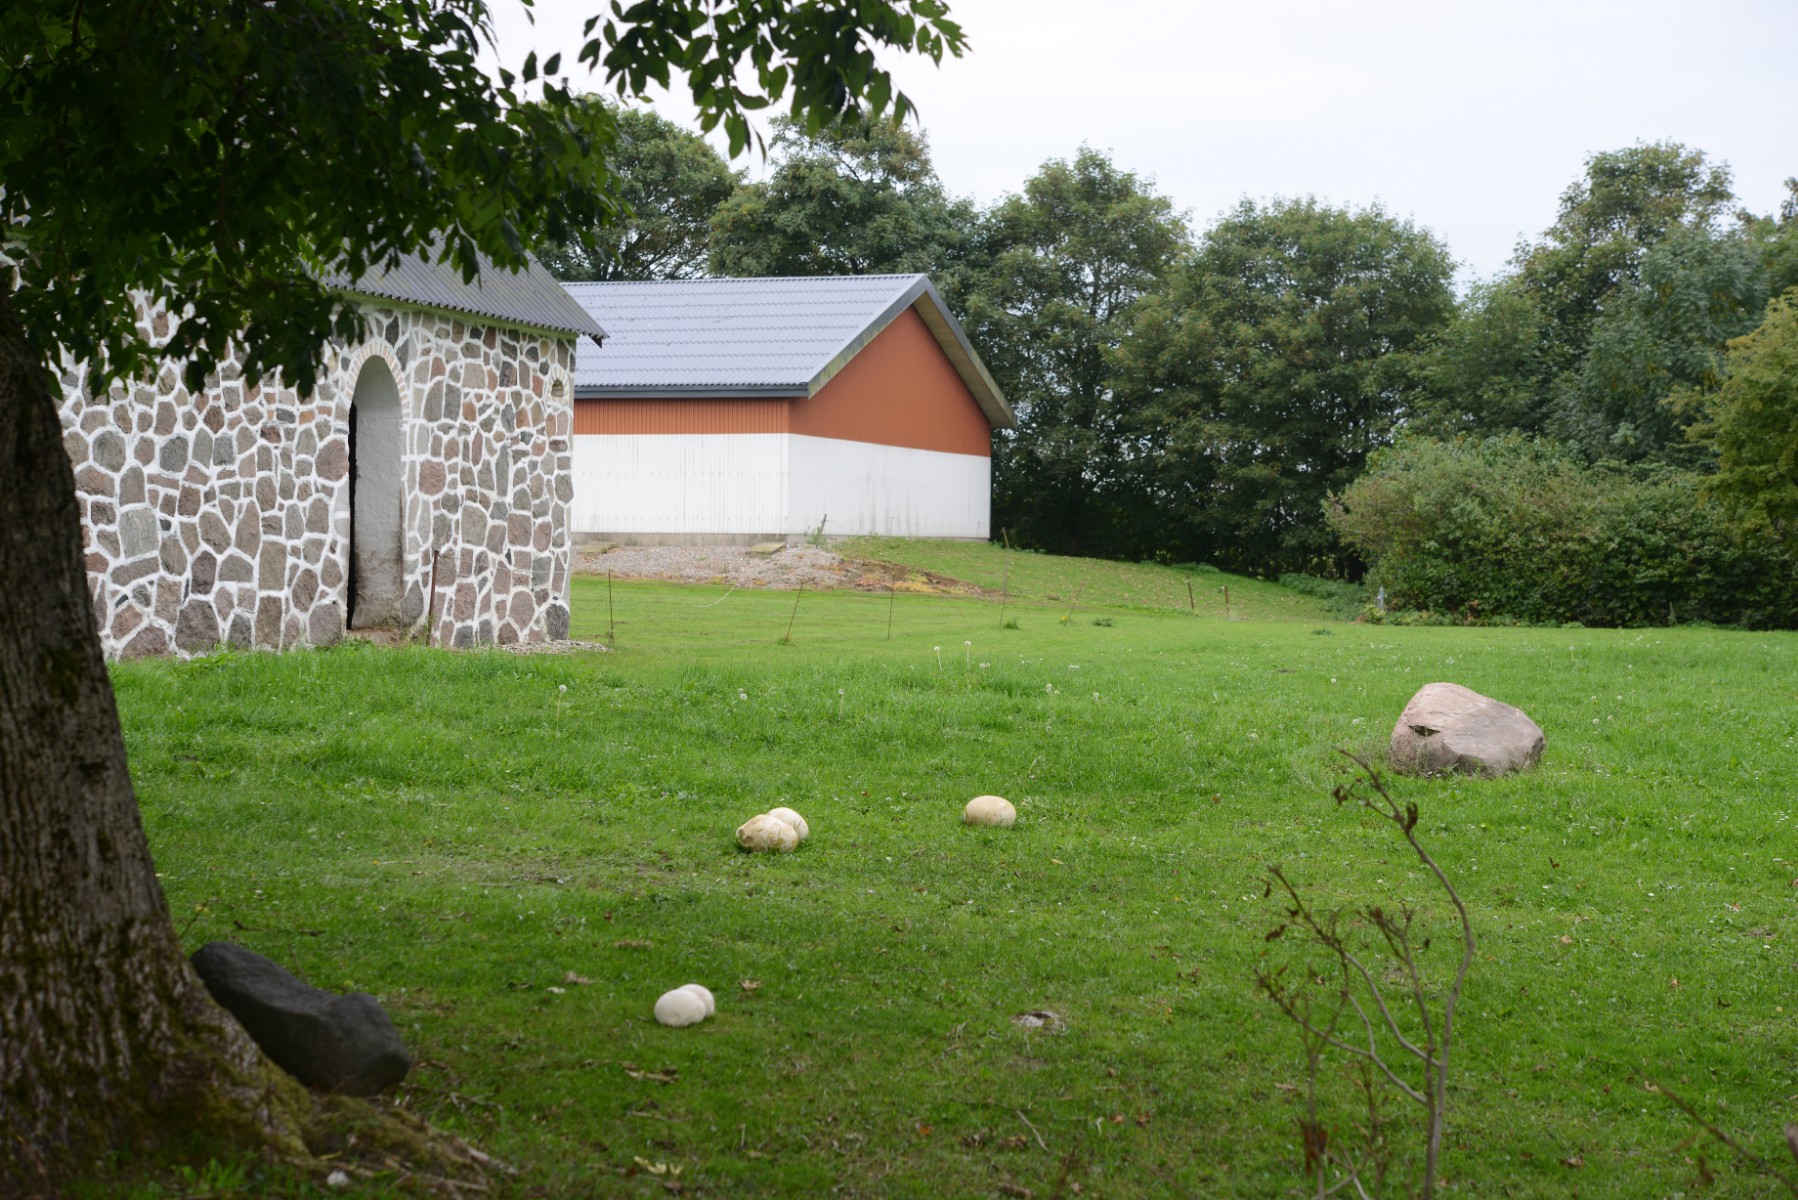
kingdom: Fungi
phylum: Basidiomycota
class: Agaricomycetes
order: Agaricales
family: Lycoperdaceae
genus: Calvatia
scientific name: Calvatia gigantea
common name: kæmpestøvbold
